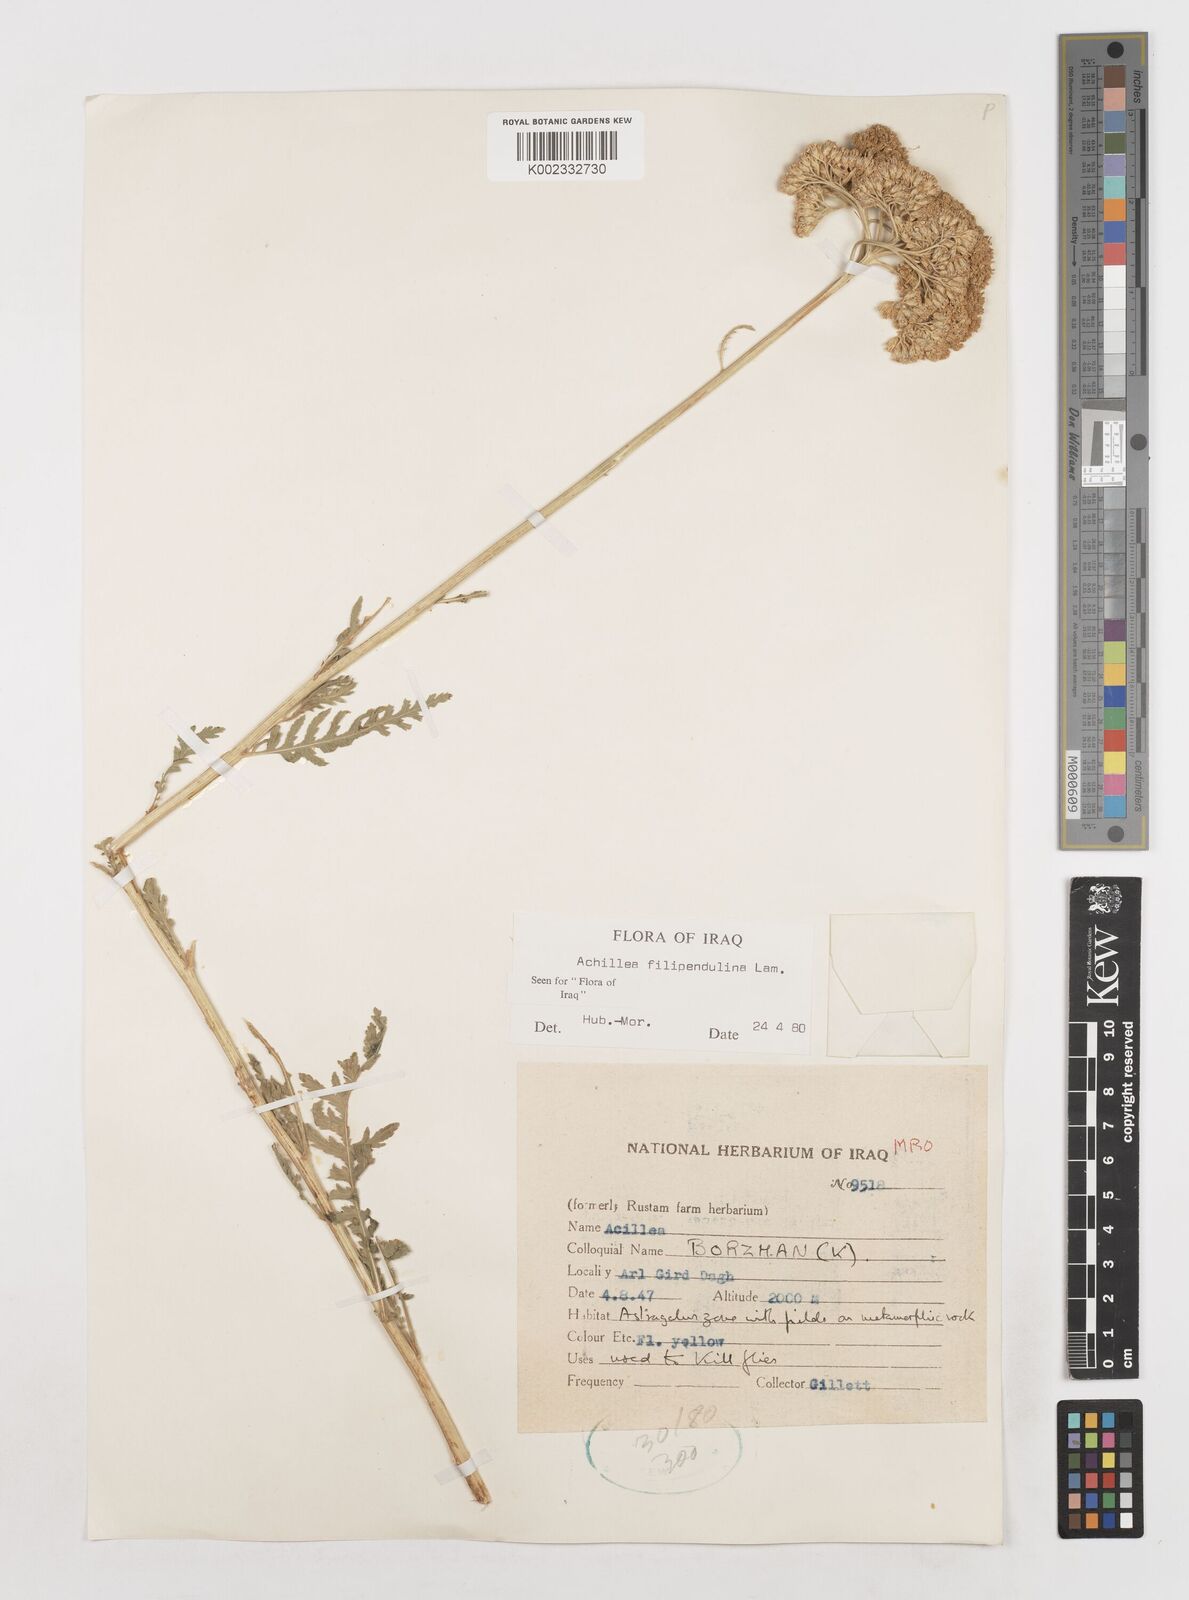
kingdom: Plantae
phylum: Tracheophyta
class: Magnoliopsida
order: Asterales
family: Asteraceae
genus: Achillea
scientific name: Achillea filipendulina
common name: Fernleaf yarrow
